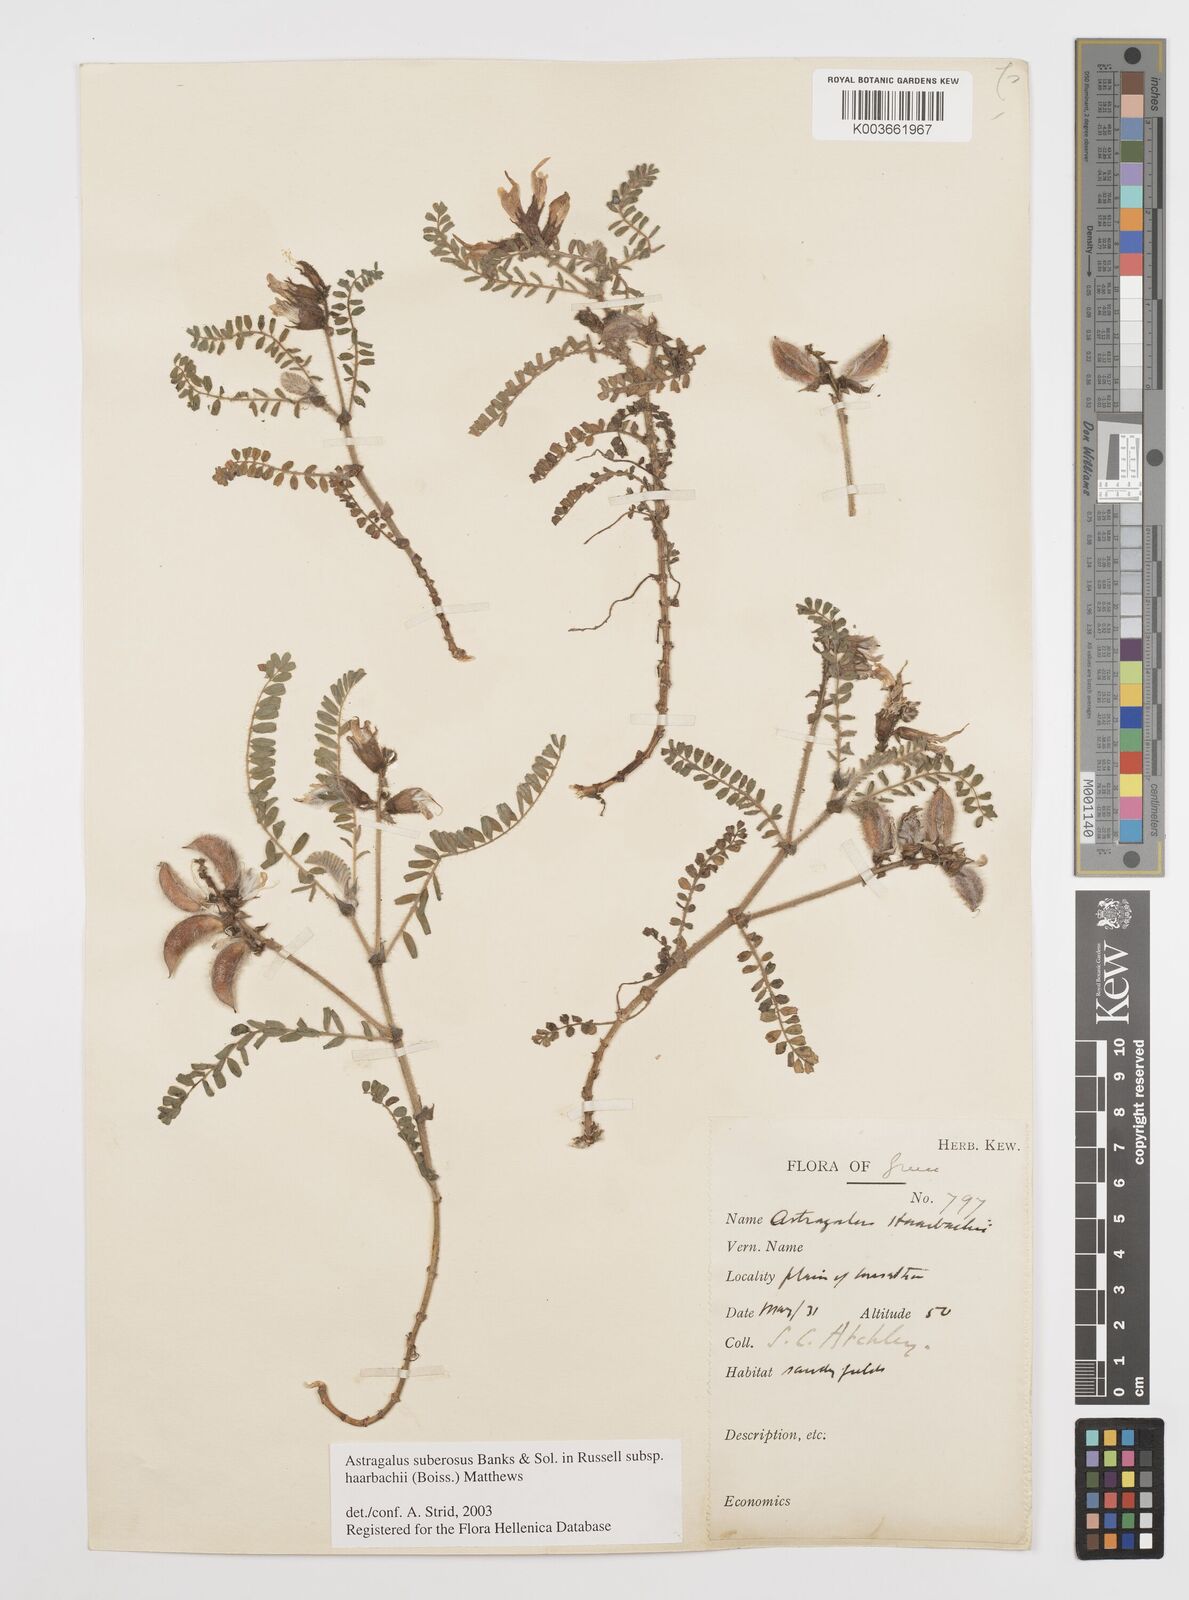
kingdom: Plantae
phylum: Tracheophyta
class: Magnoliopsida
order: Fabales
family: Fabaceae
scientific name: Fabaceae
